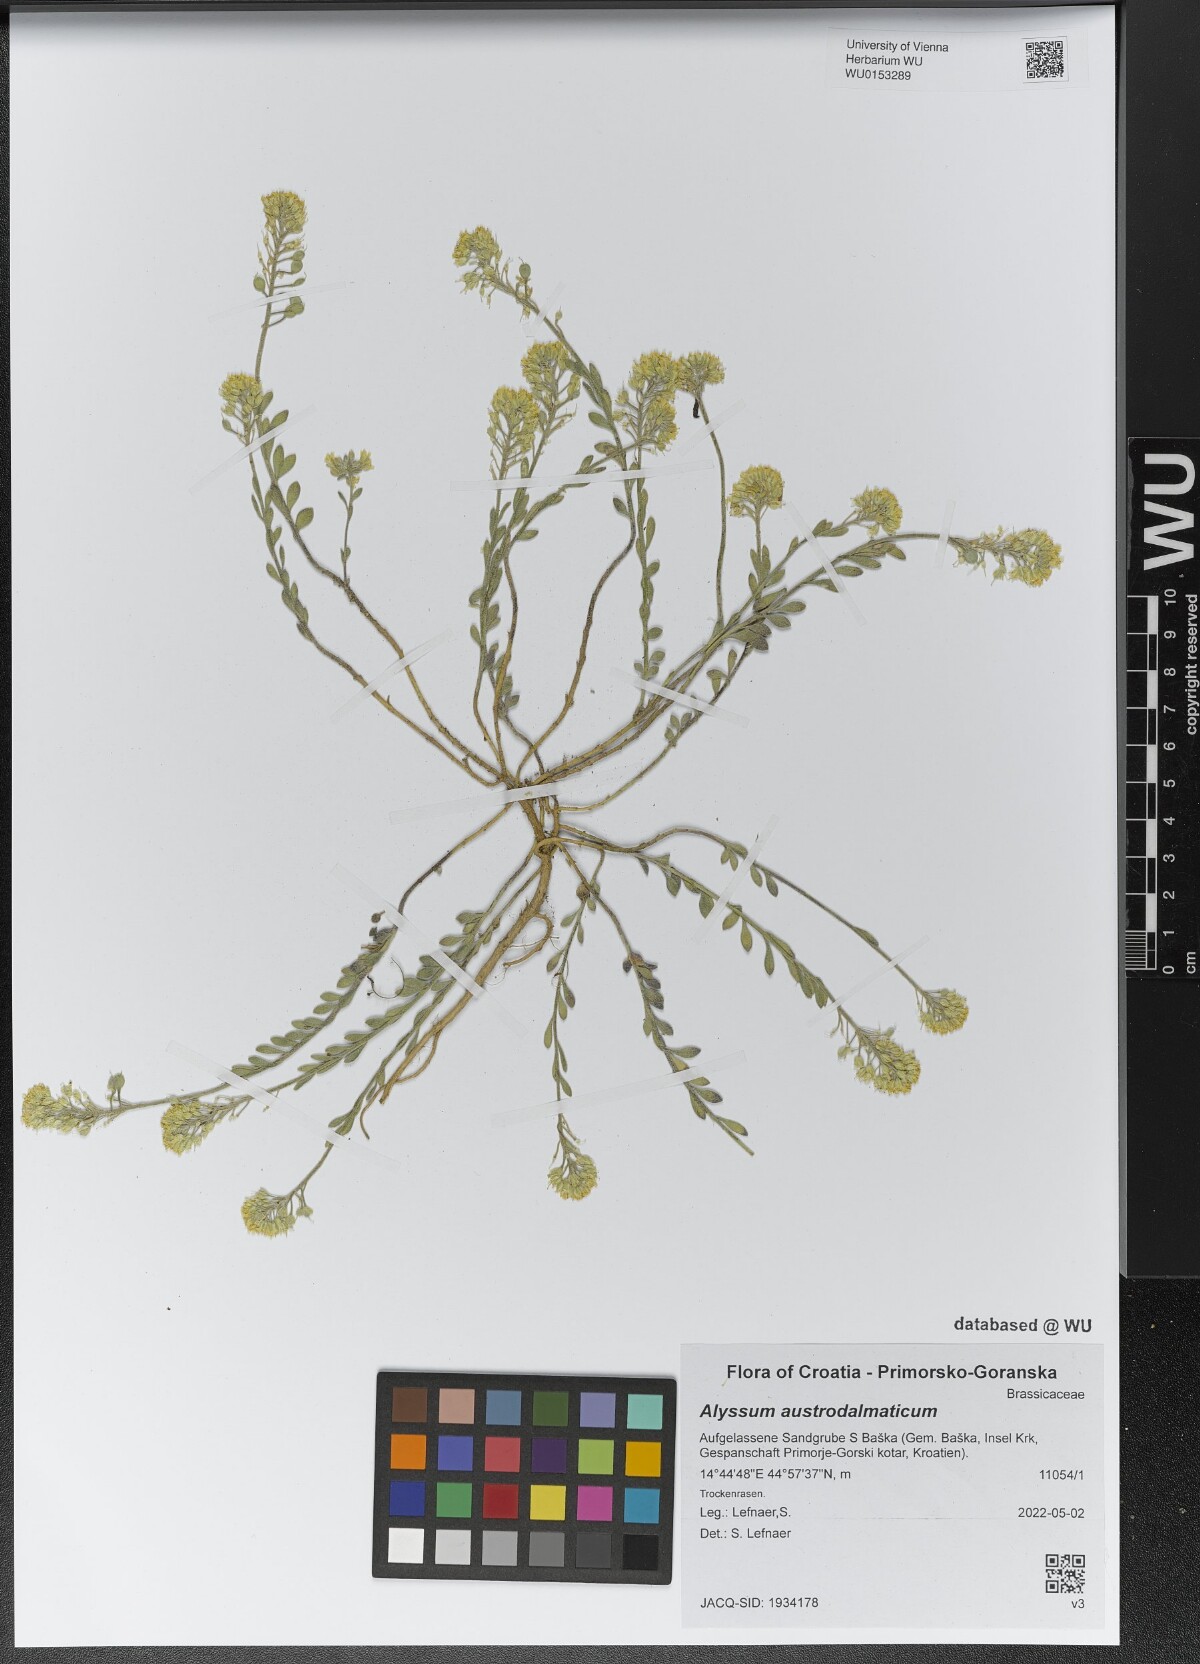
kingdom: Plantae
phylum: Tracheophyta
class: Magnoliopsida
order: Brassicales
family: Brassicaceae
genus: Alyssum
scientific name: Alyssum austrodalmaticum
